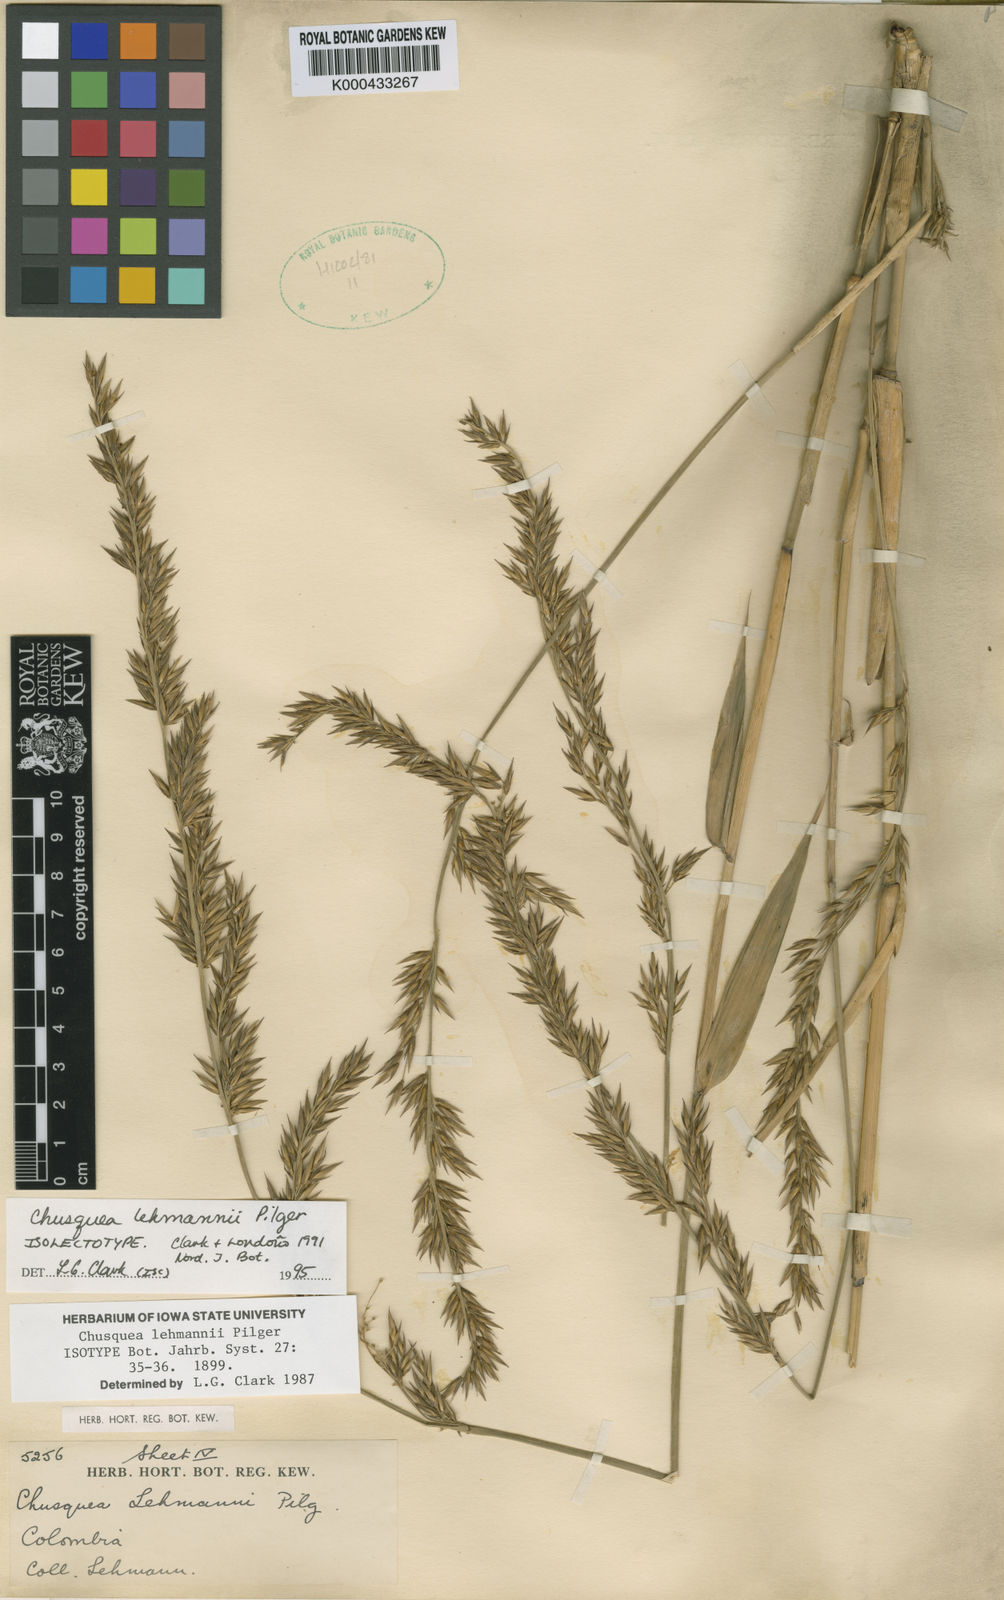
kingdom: Plantae
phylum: Tracheophyta
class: Liliopsida
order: Poales
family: Poaceae
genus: Chusquea
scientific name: Chusquea lehmannii
